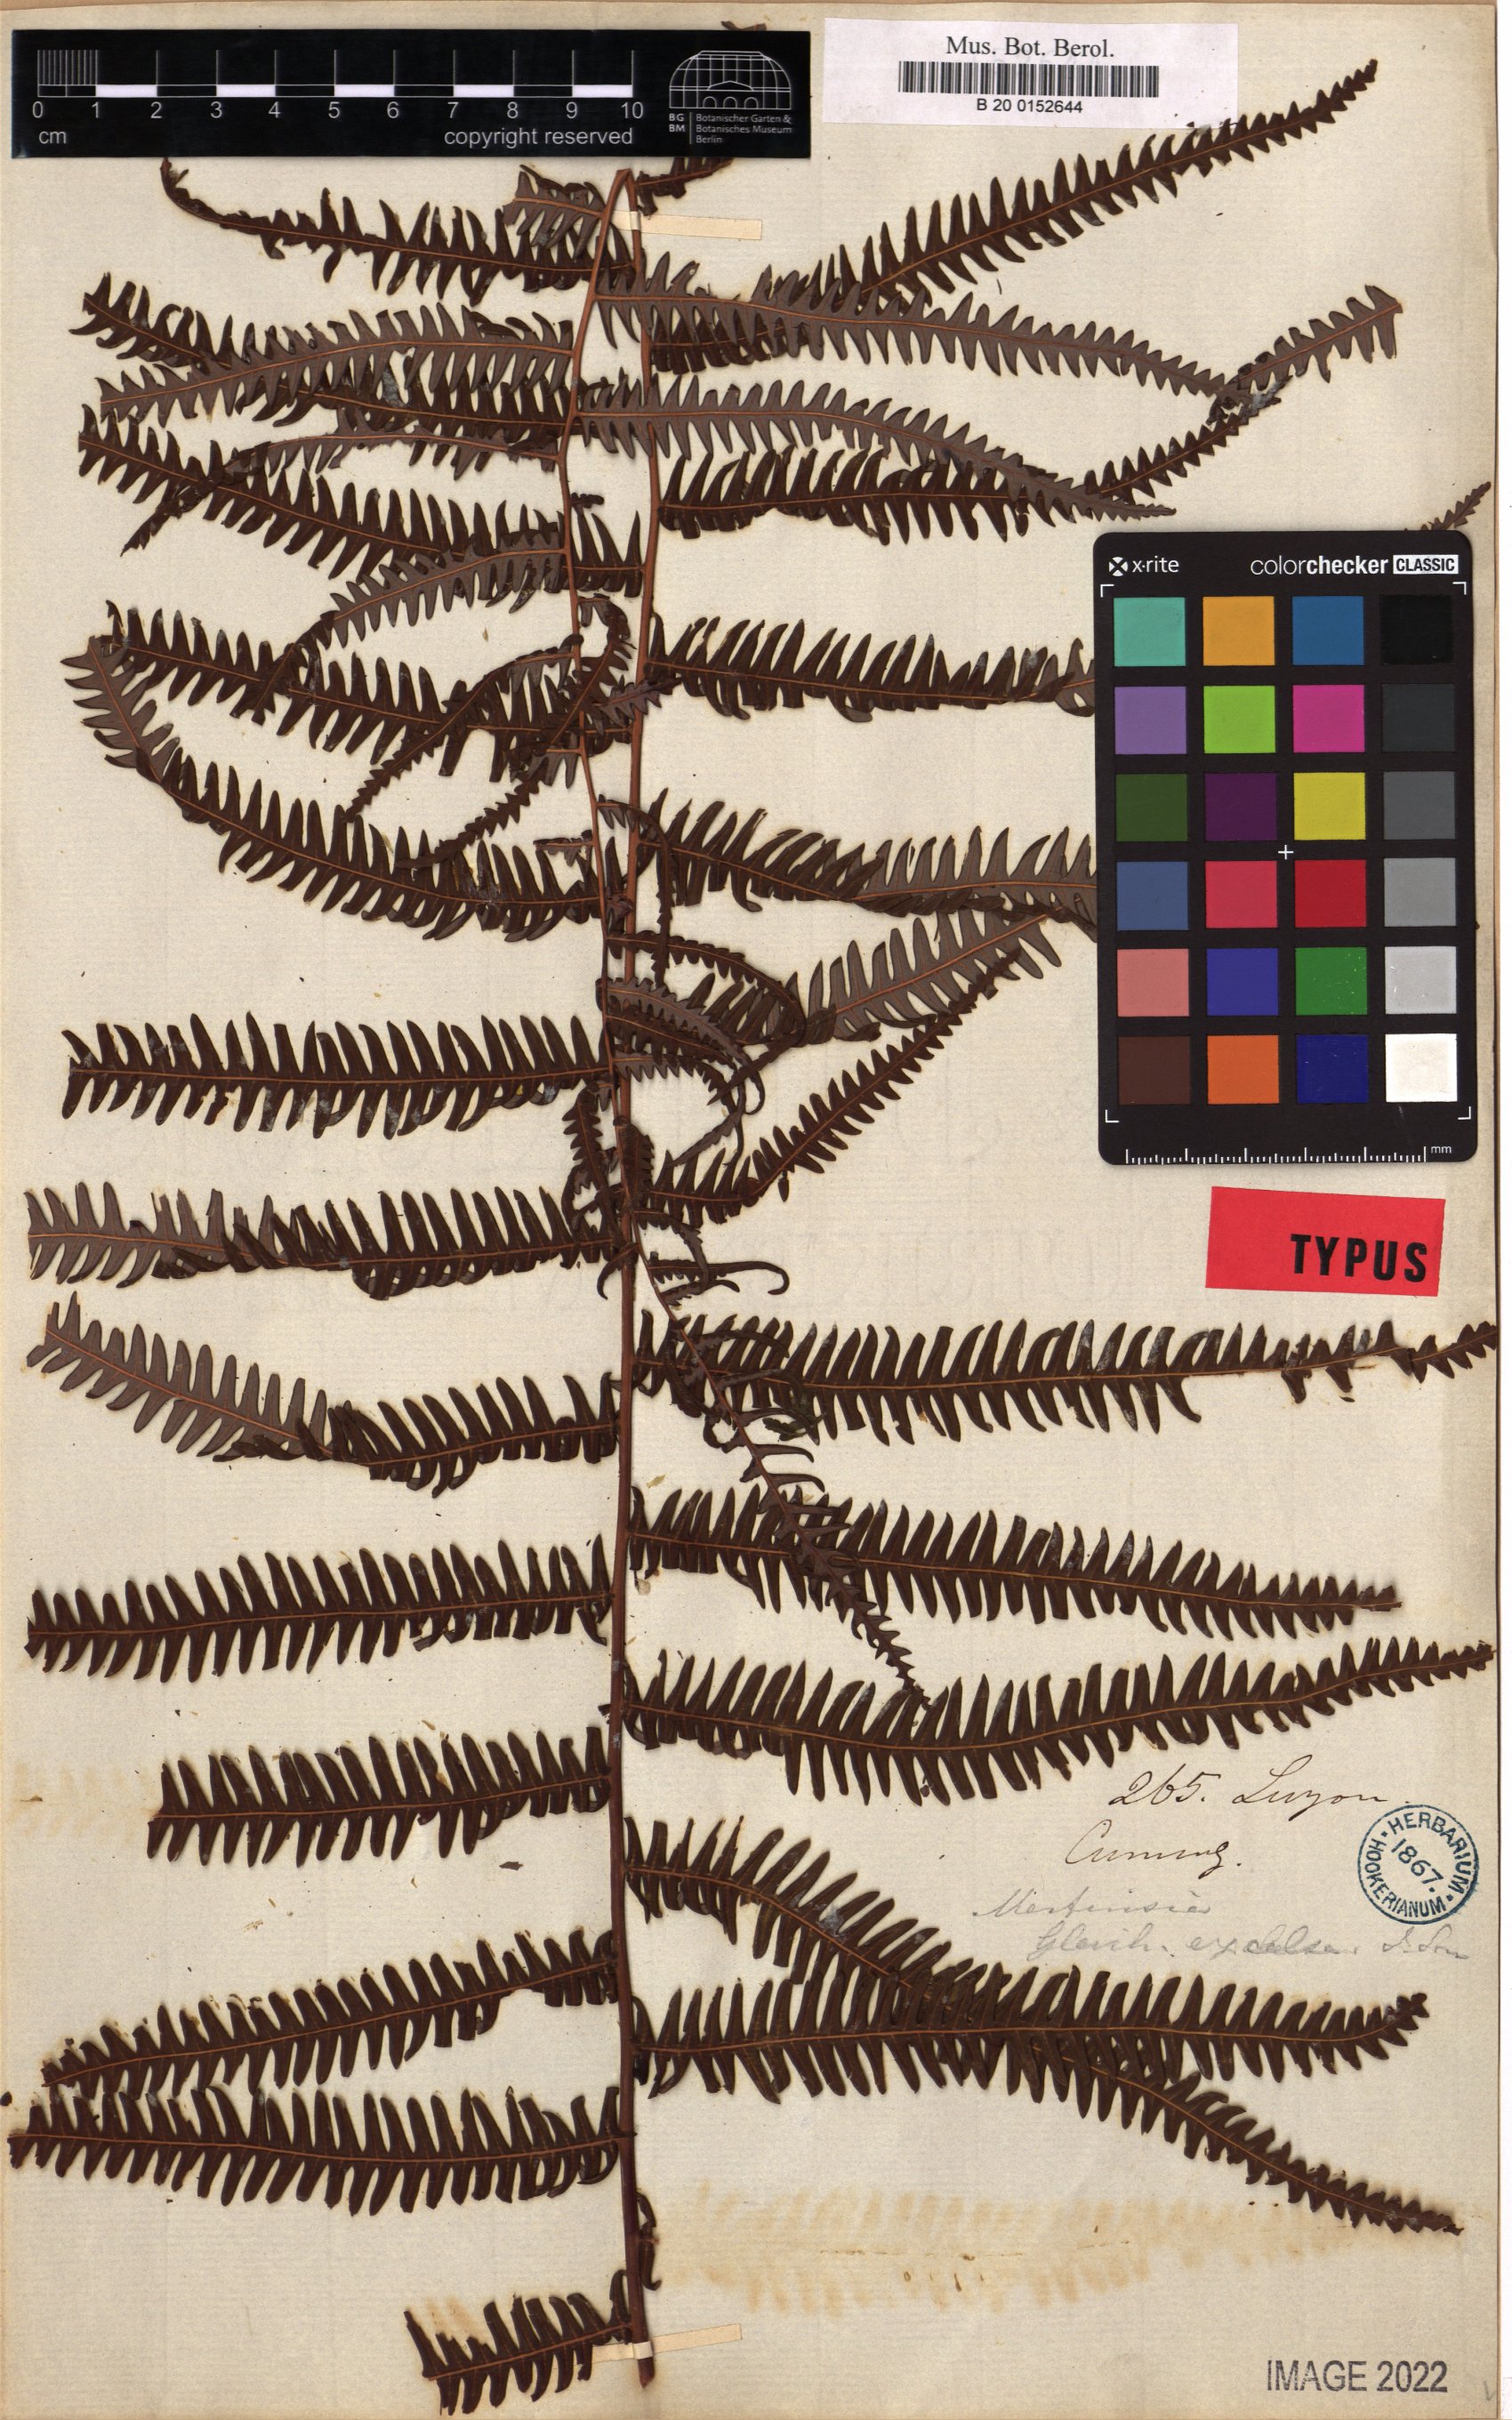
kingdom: Plantae
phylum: Tracheophyta
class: Polypodiopsida
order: Gleicheniales
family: Gleicheniaceae
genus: Diplopterygium
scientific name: Diplopterygium longissimum
